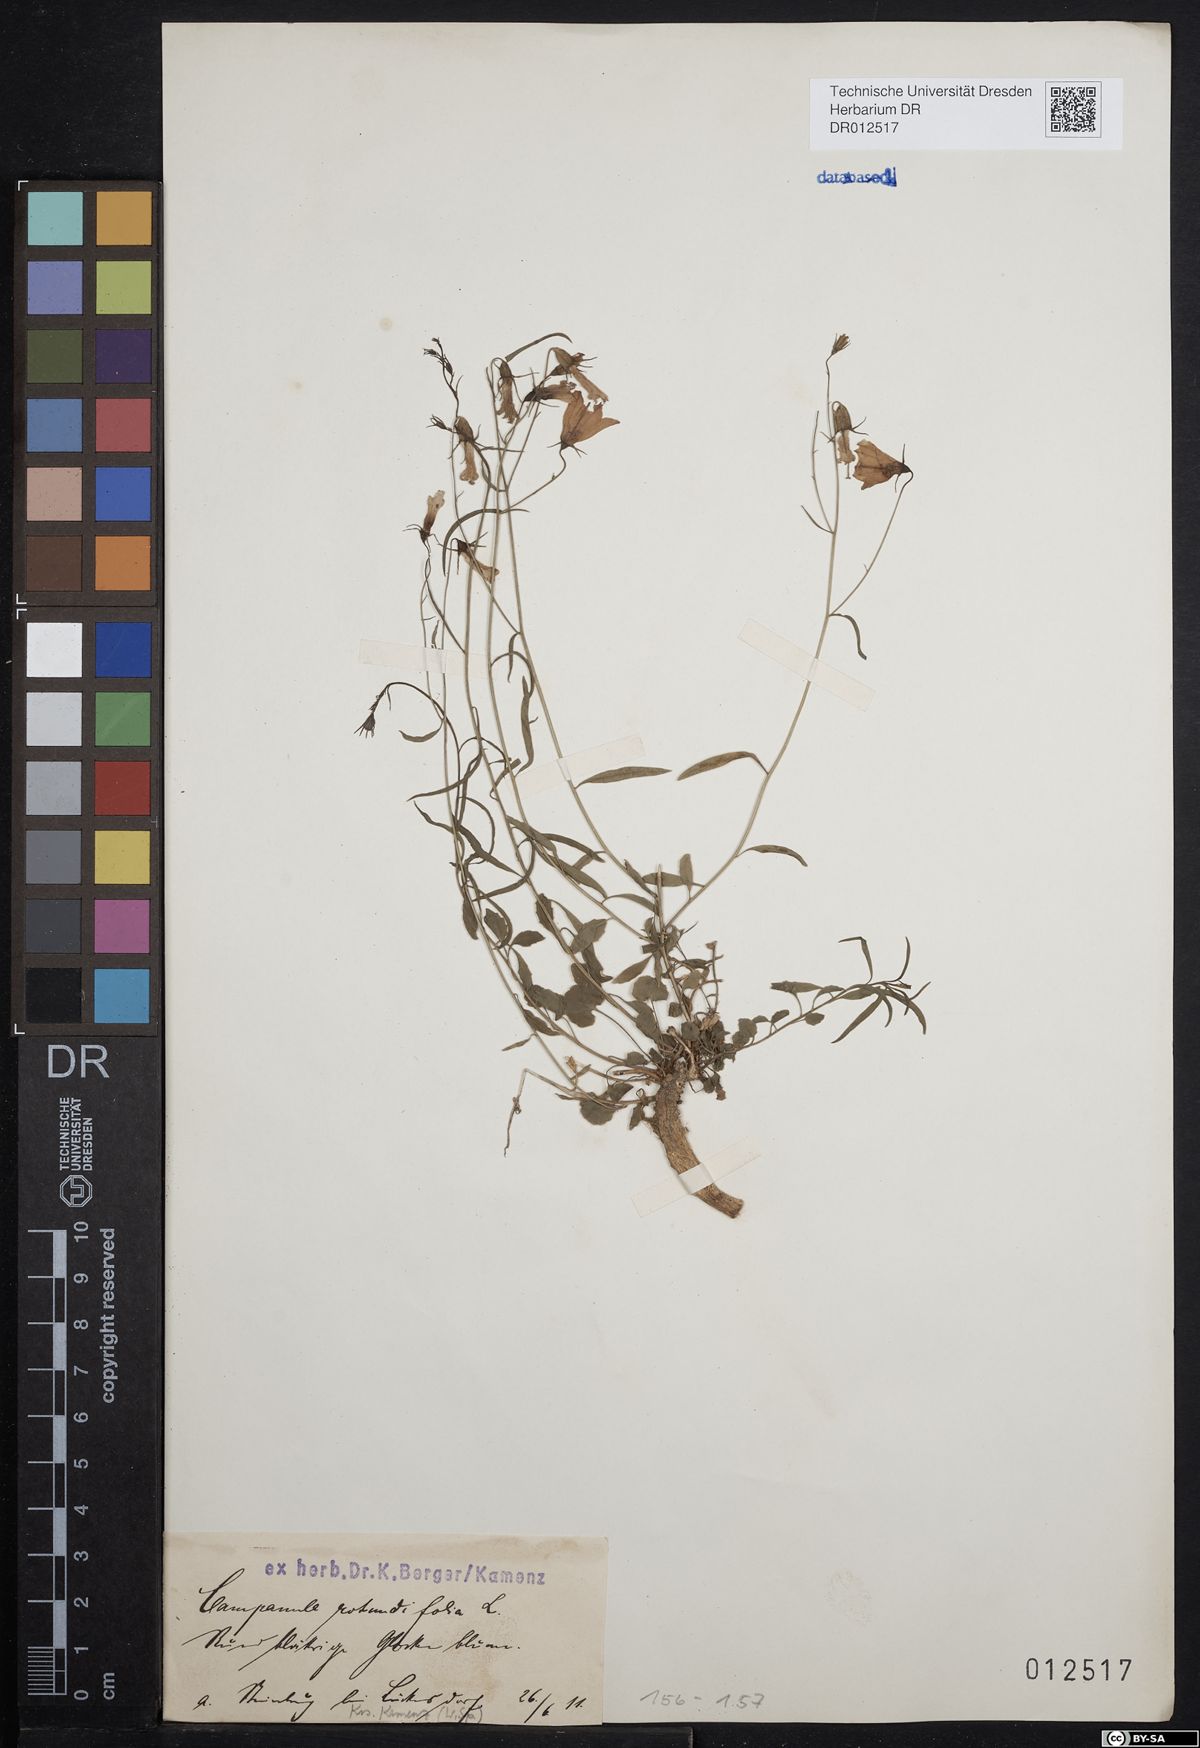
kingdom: Plantae
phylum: Tracheophyta
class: Magnoliopsida
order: Asterales
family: Campanulaceae
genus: Campanula
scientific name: Campanula rotundifolia
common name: Harebell
